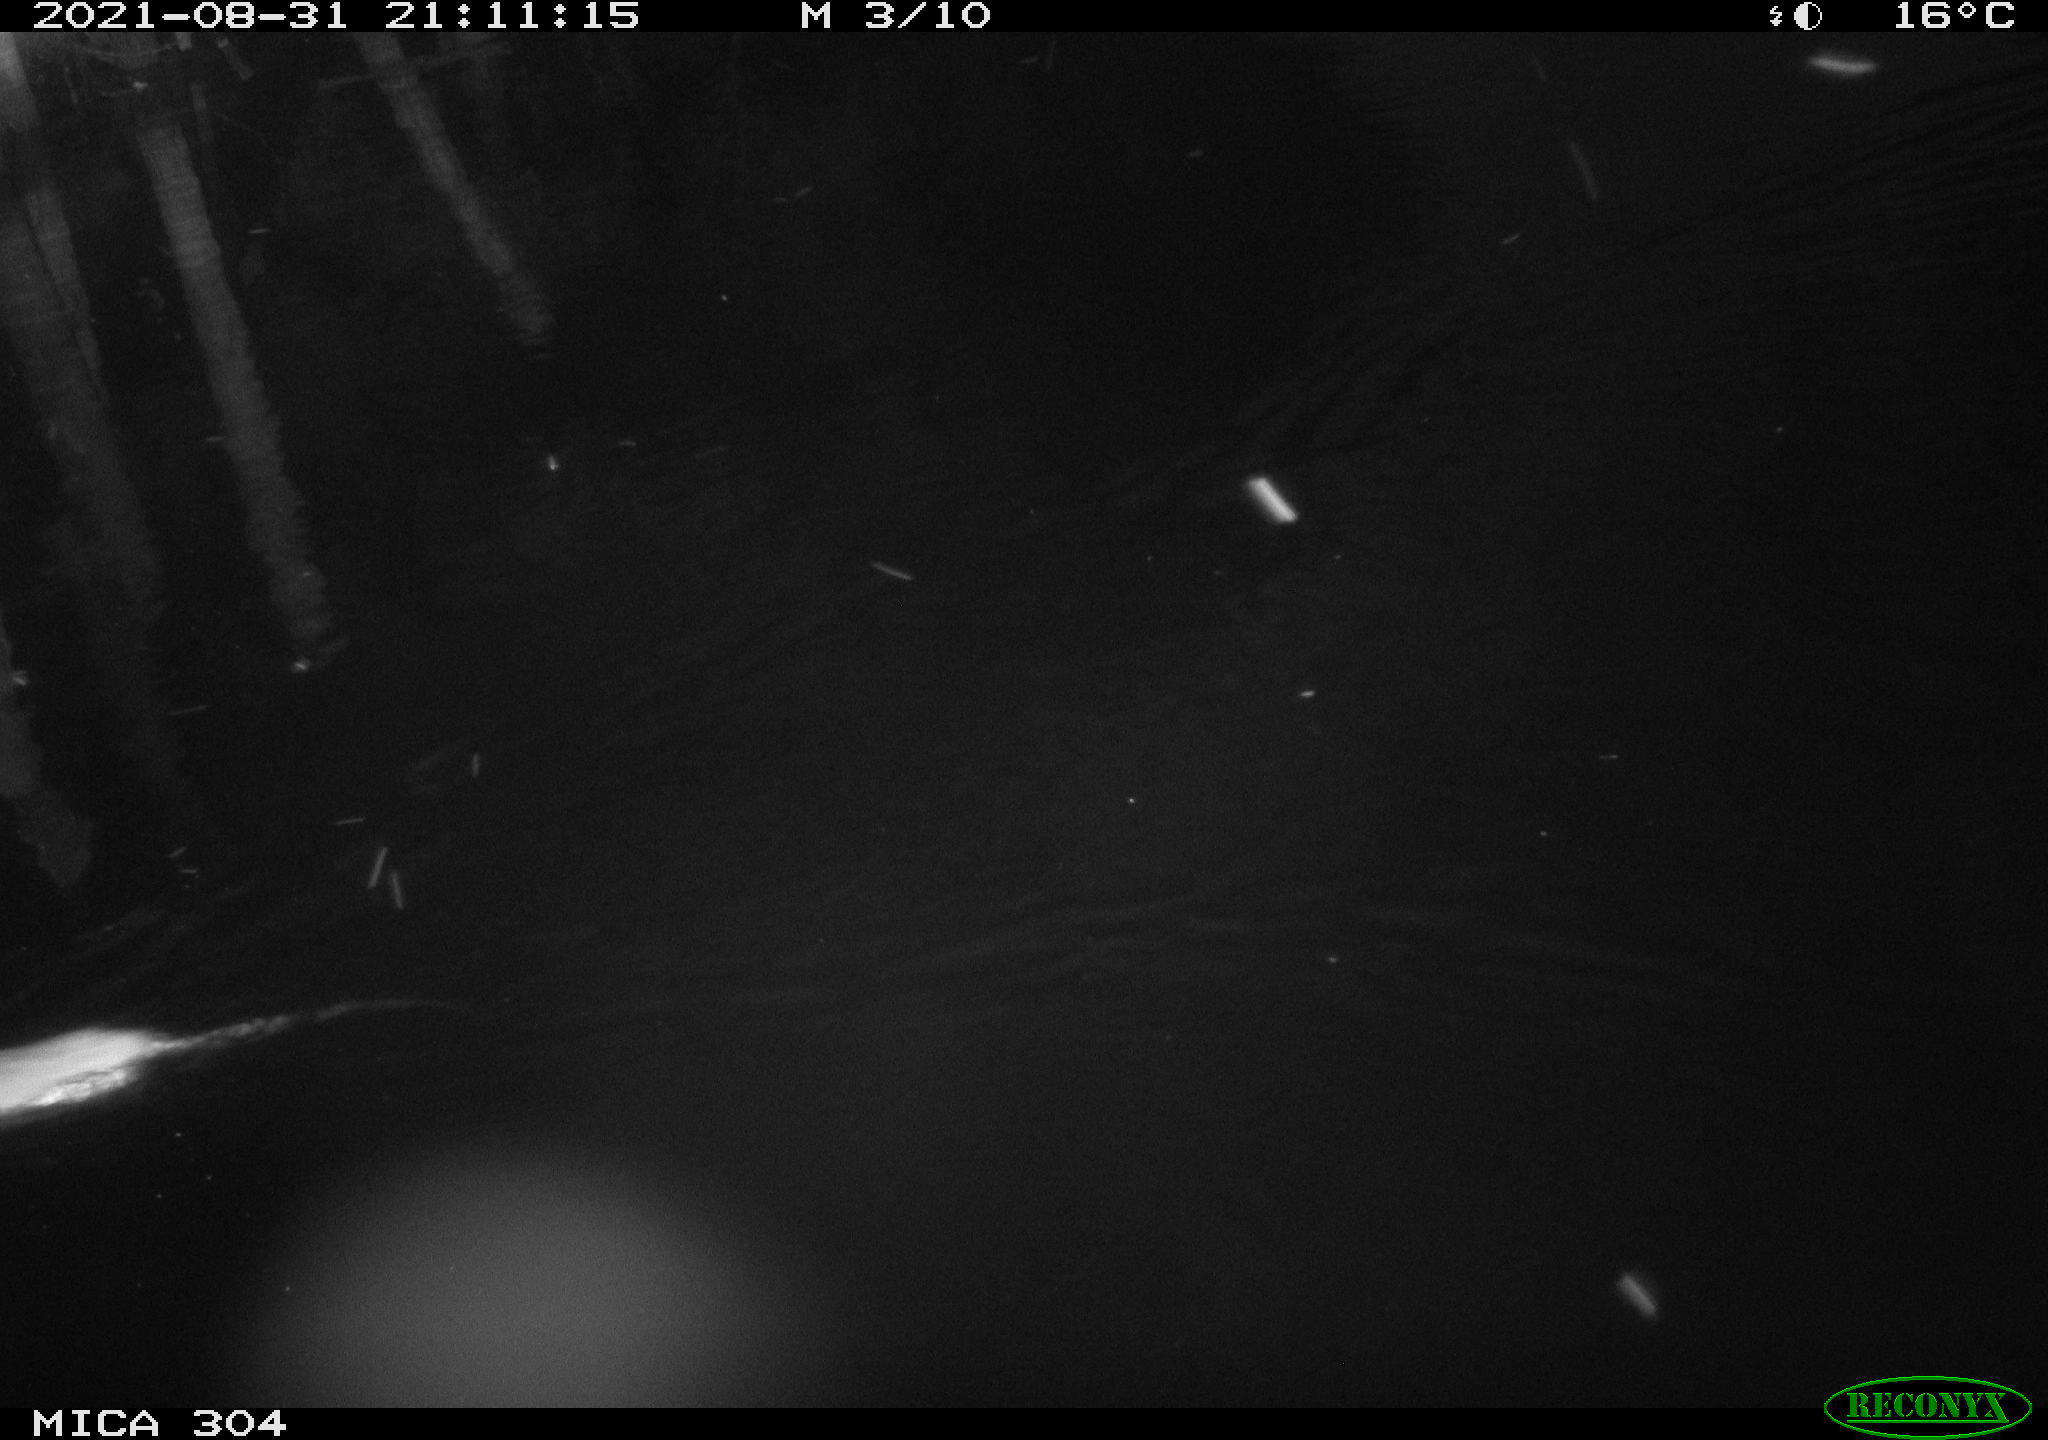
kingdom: Animalia
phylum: Chordata
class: Mammalia
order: Rodentia
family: Muridae
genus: Rattus
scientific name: Rattus norvegicus
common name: Brown rat
